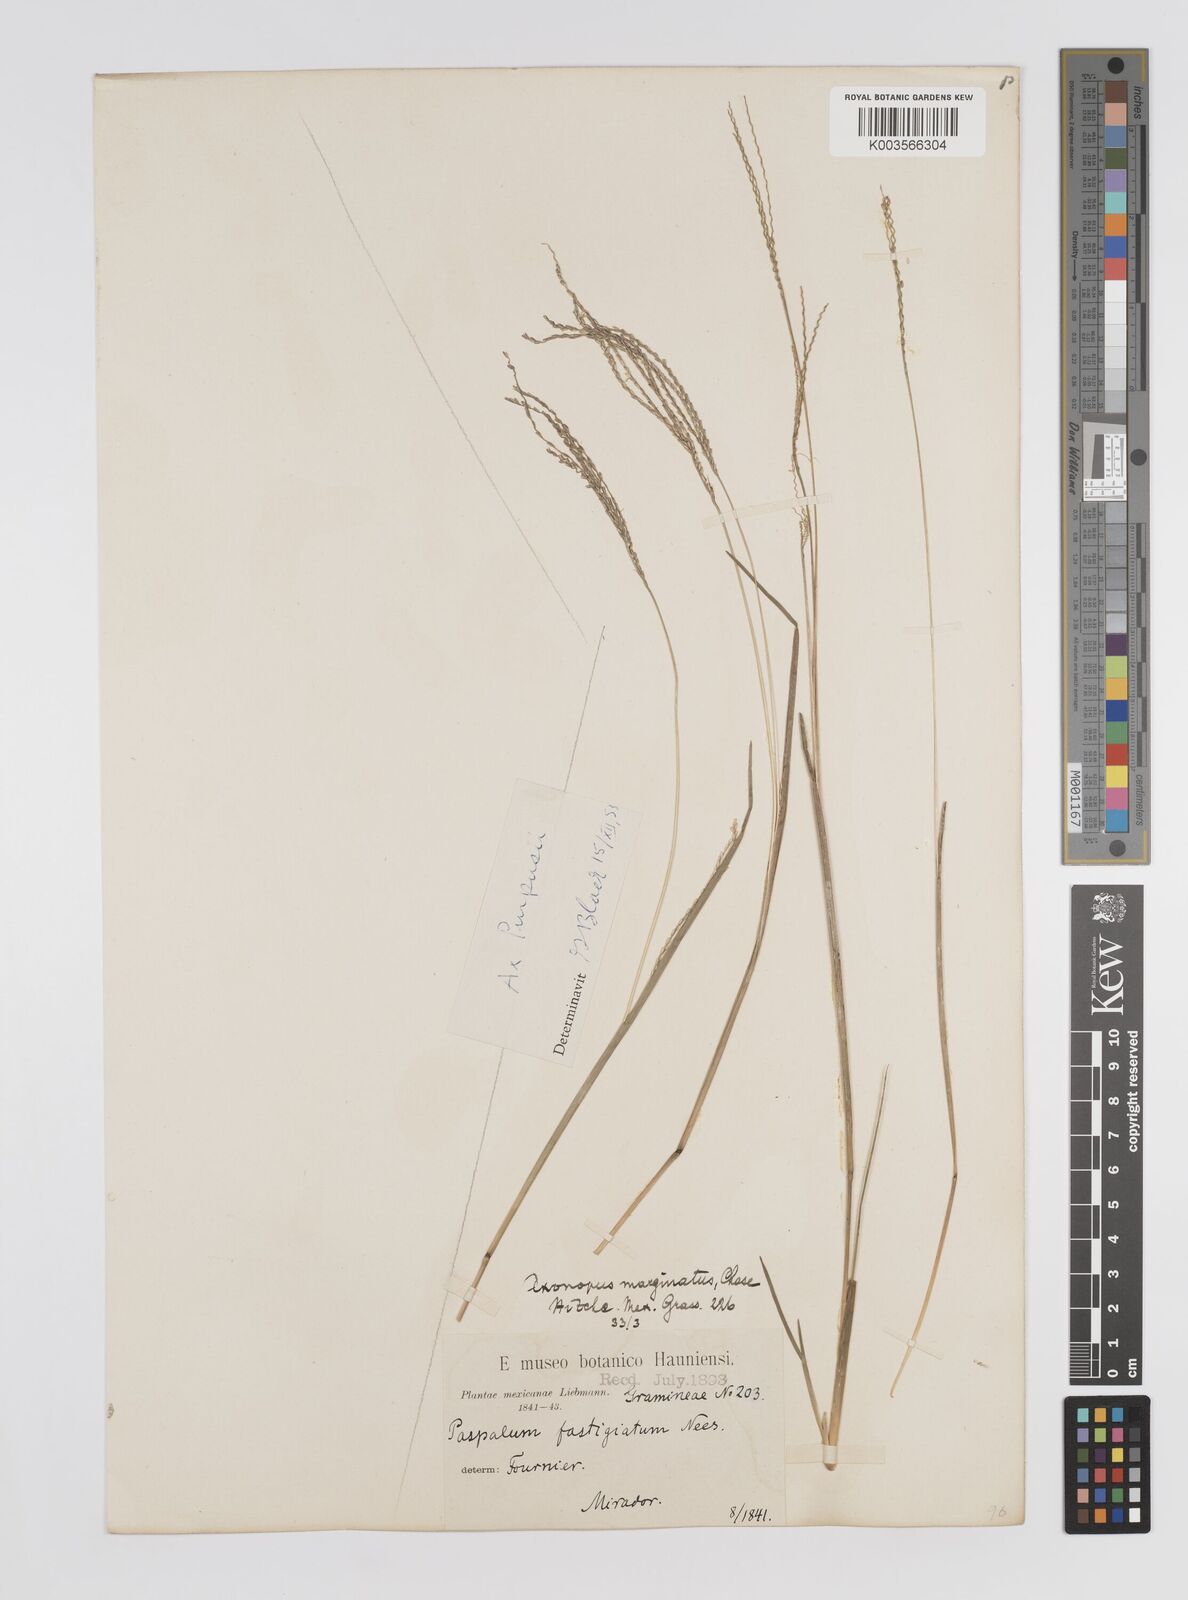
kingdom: Plantae
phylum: Tracheophyta
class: Liliopsida
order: Poales
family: Poaceae
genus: Axonopus
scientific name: Axonopus purpusii
